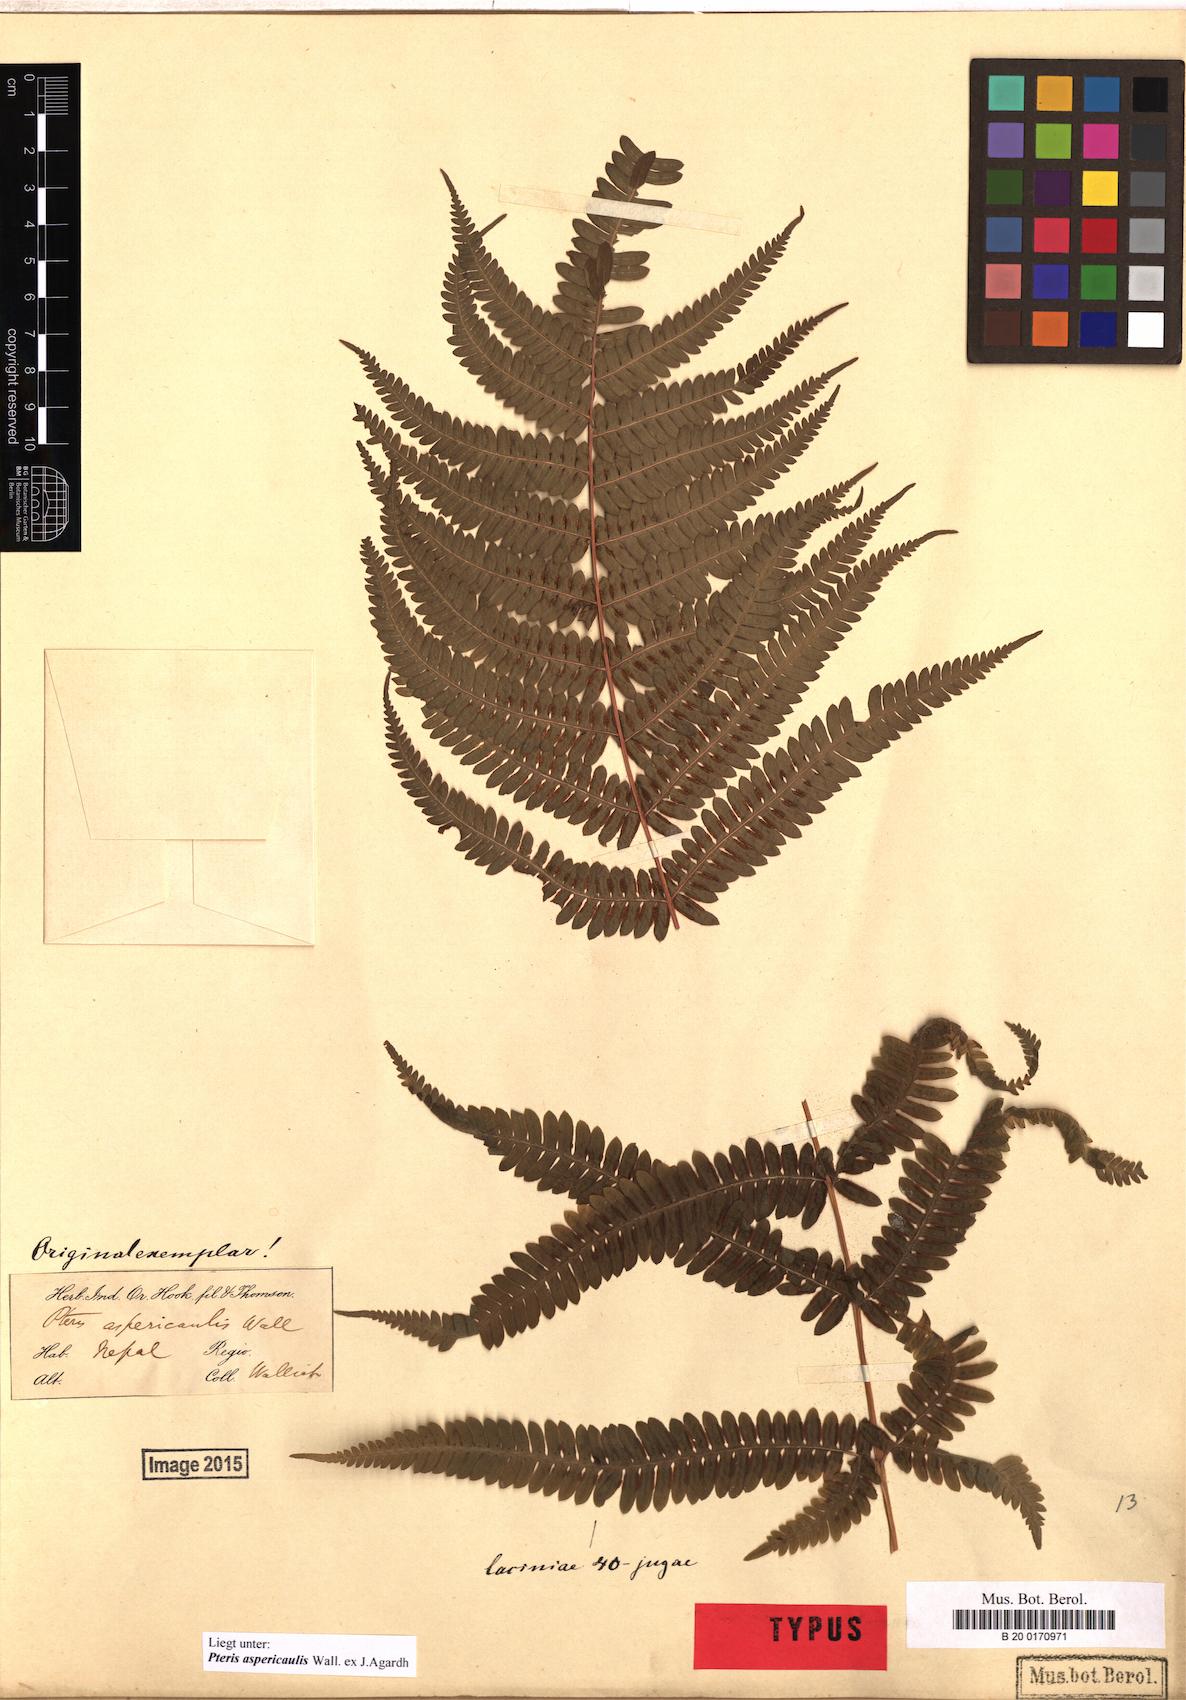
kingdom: Plantae
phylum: Tracheophyta
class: Polypodiopsida
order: Polypodiales
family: Pteridaceae
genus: Pteris
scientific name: Pteris aspericaulis
